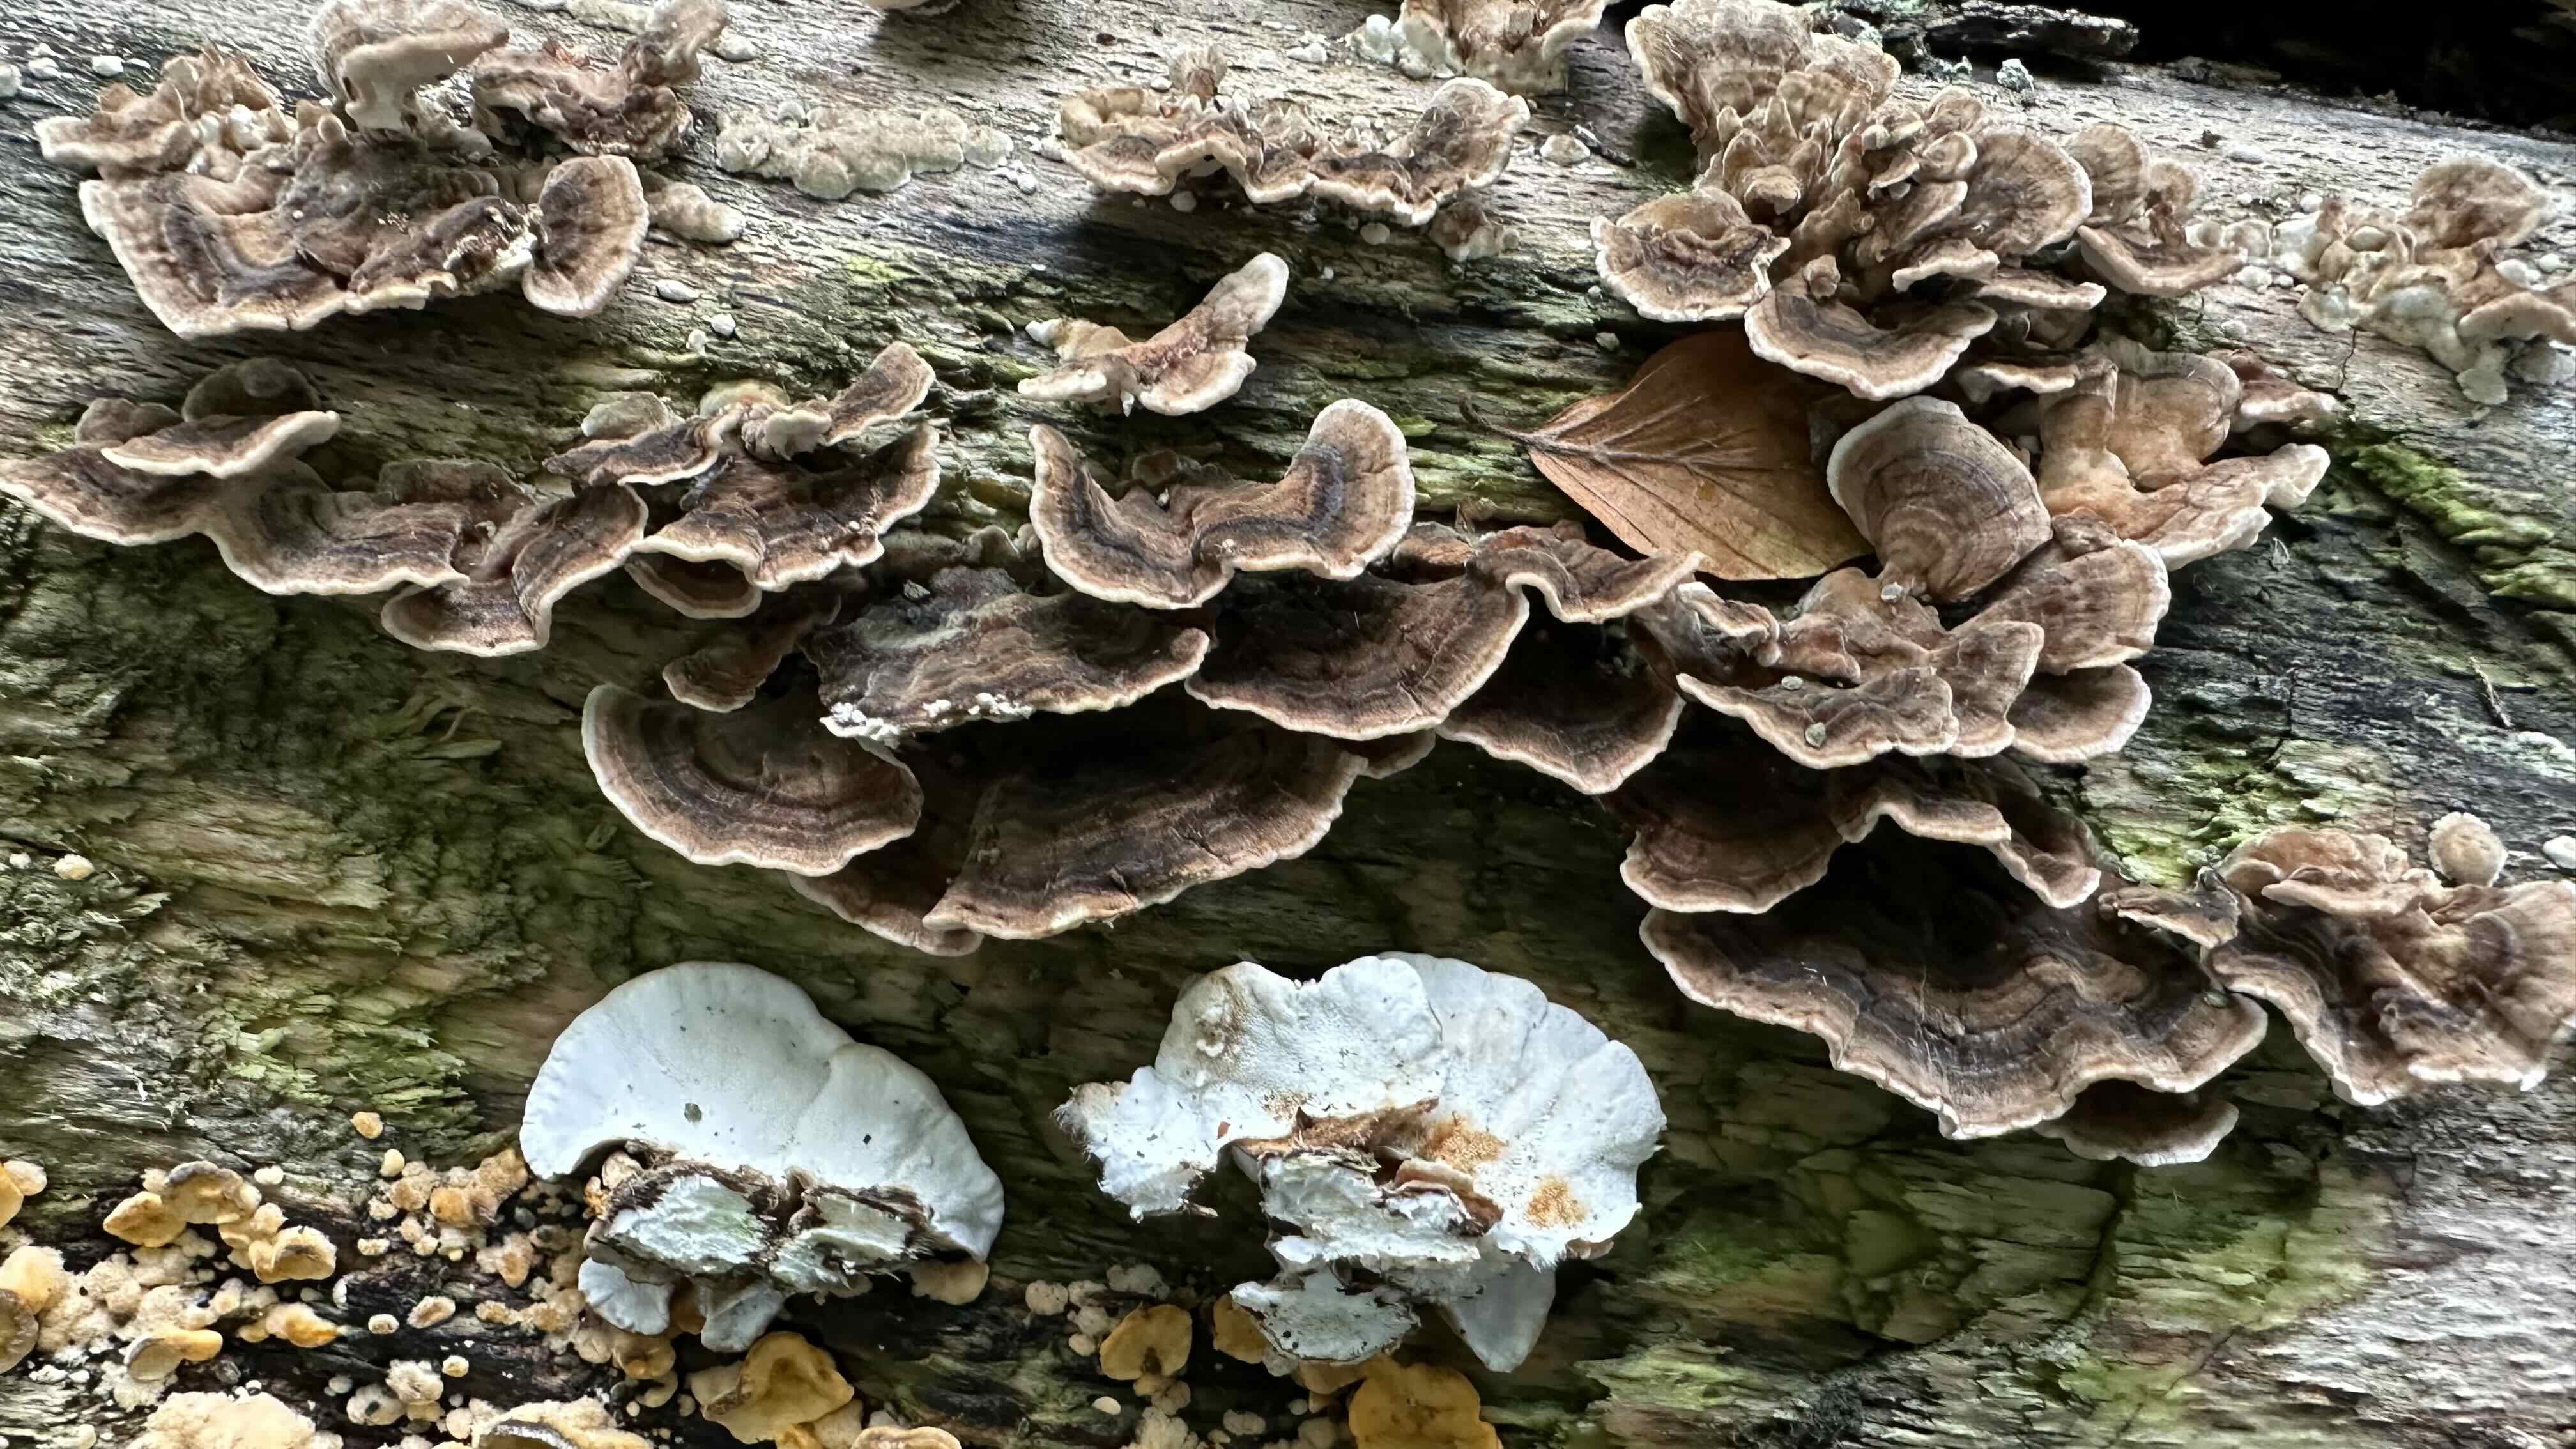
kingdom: Fungi
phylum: Basidiomycota
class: Agaricomycetes
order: Polyporales
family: Polyporaceae
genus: Trametes
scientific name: Trametes versicolor
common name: broget læderporesvamp
